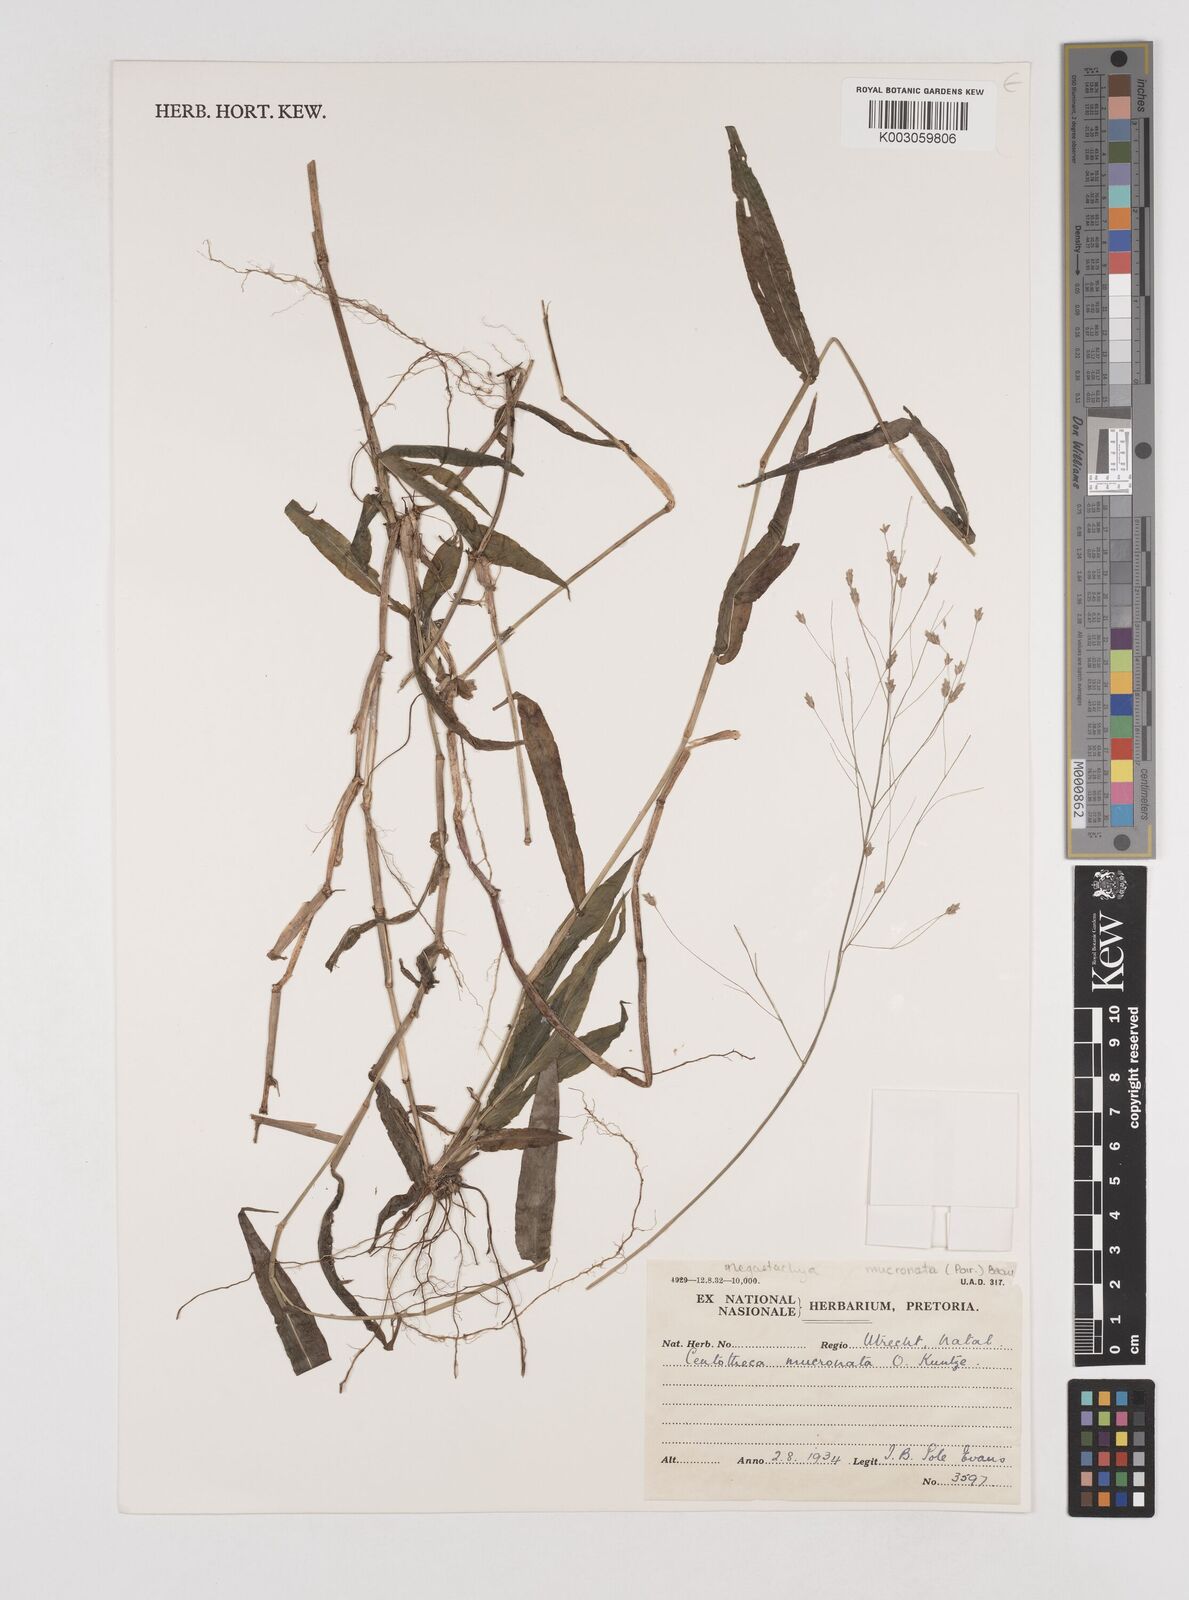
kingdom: Plantae
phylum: Tracheophyta
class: Liliopsida
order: Poales
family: Poaceae
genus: Megastachya
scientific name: Megastachya mucronata
